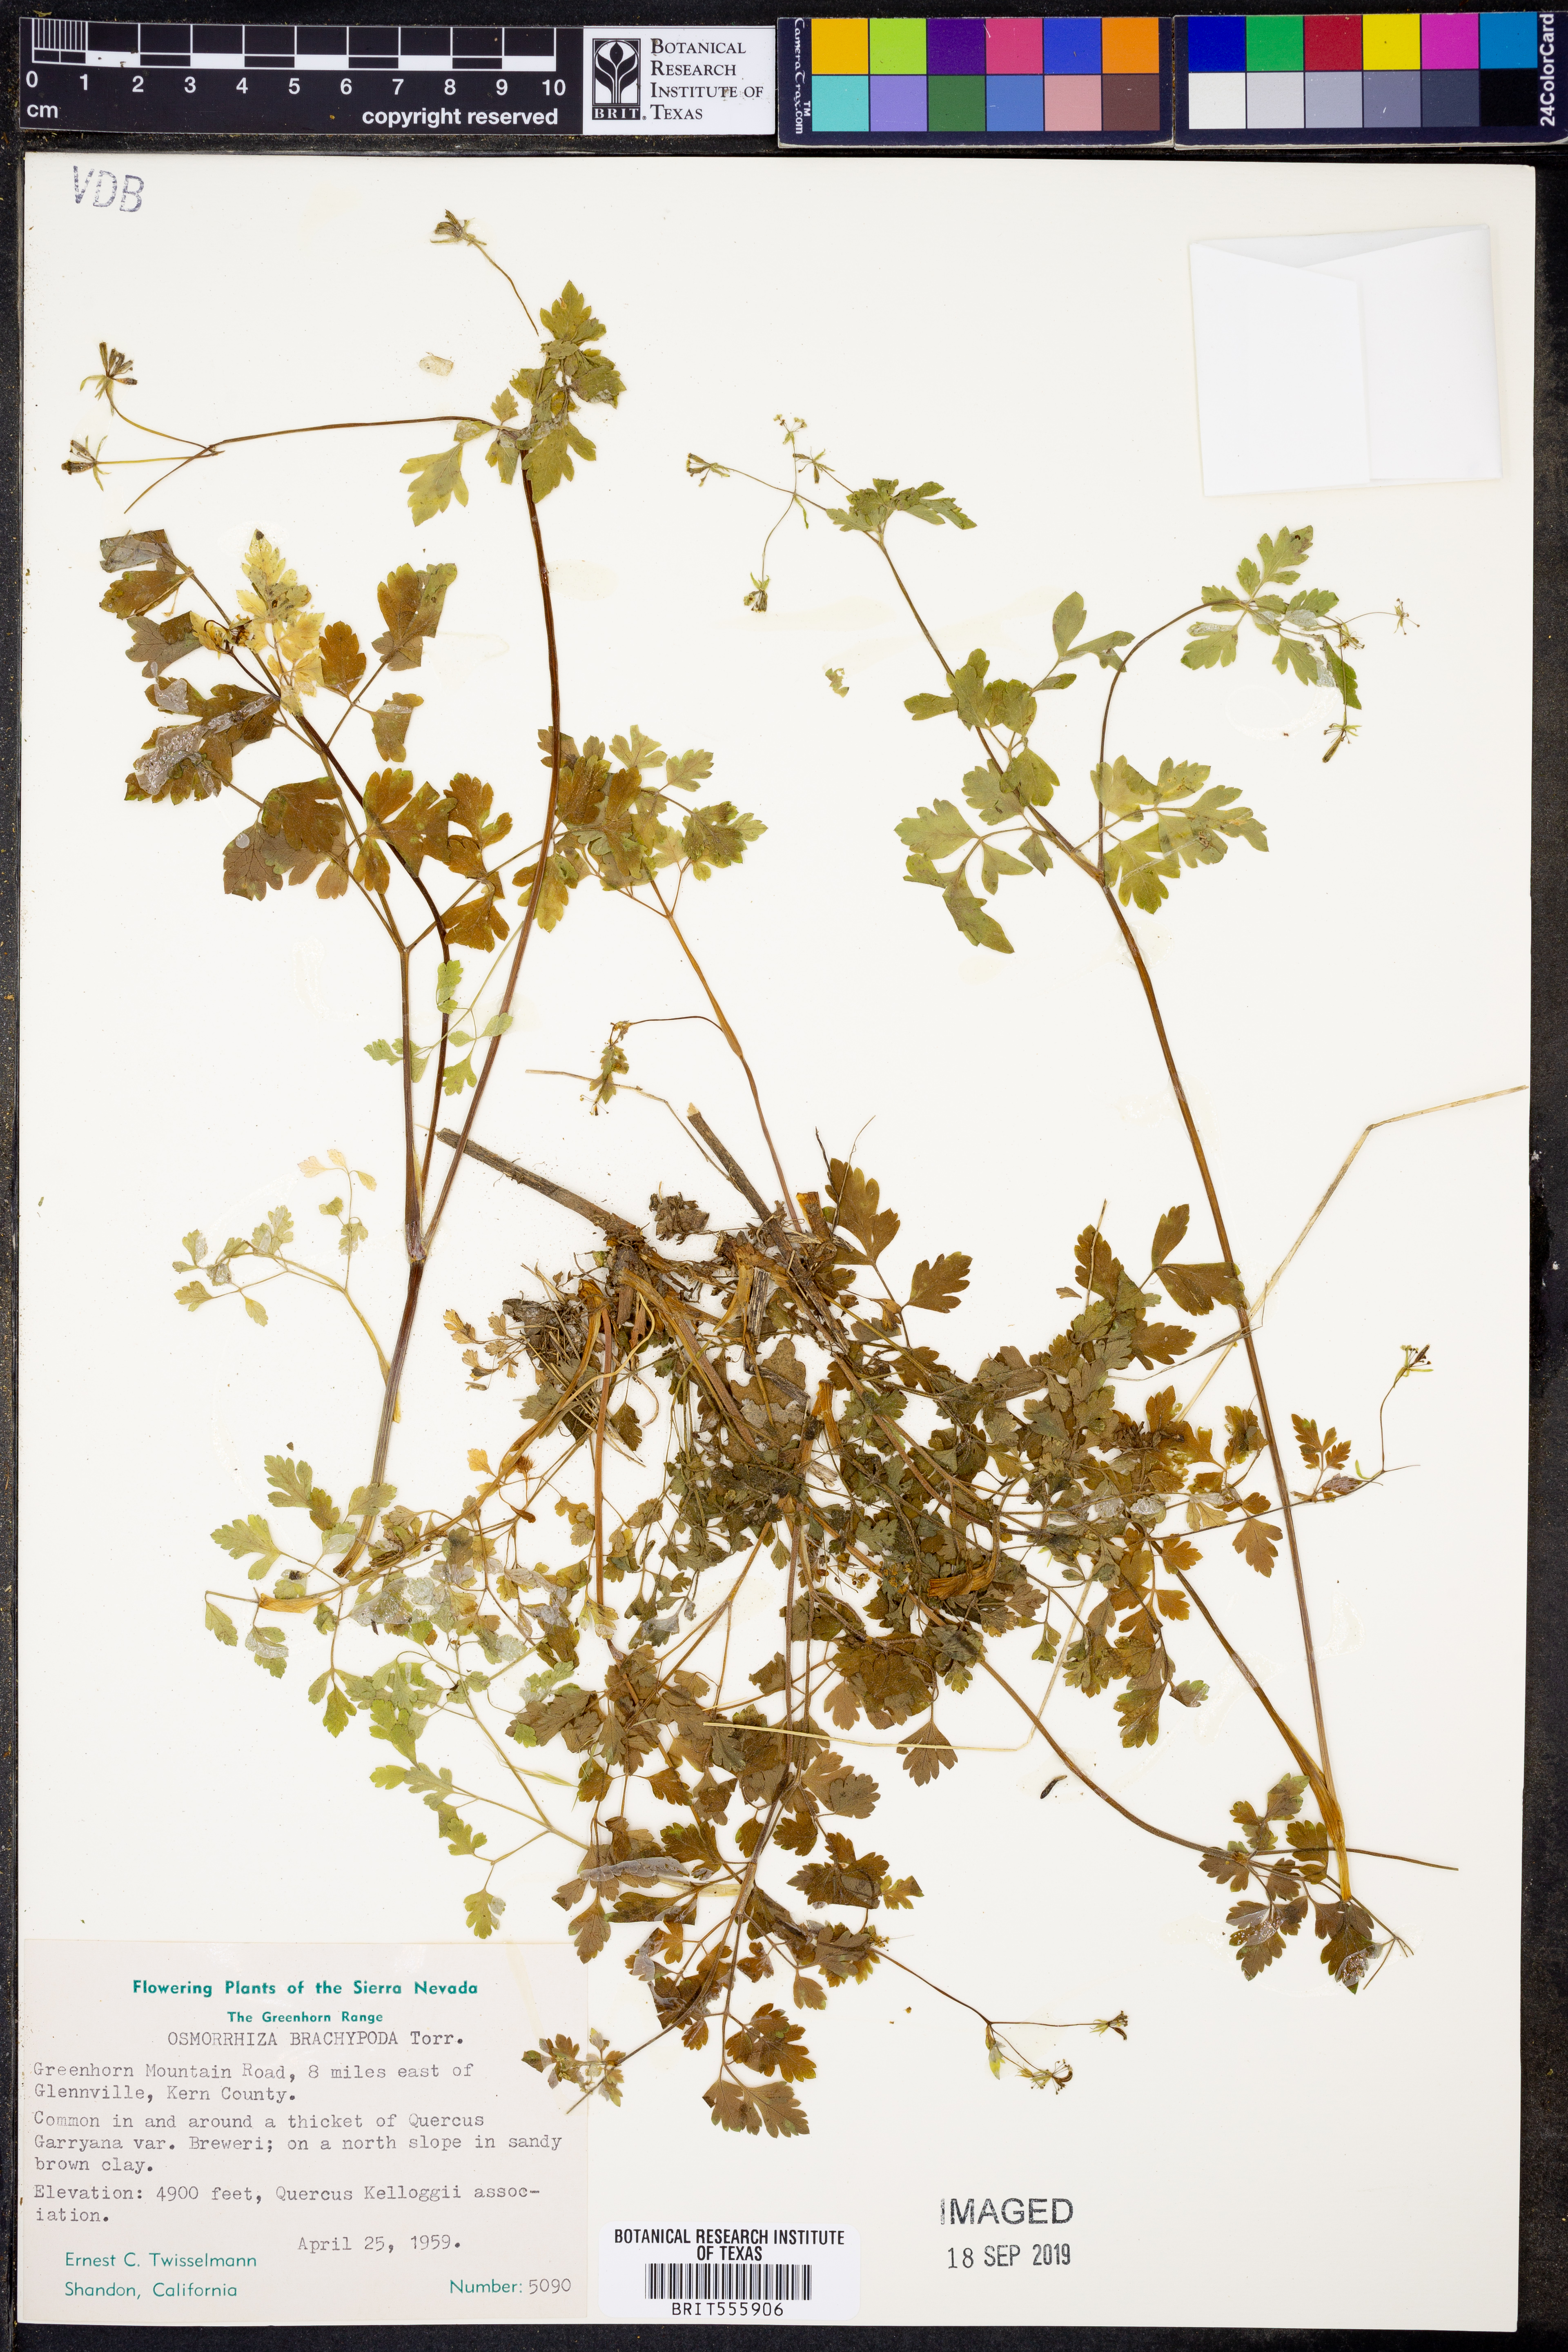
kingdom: Plantae
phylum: Tracheophyta
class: Magnoliopsida
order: Apiales
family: Apiaceae
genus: Osmorhiza
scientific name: Osmorhiza brachypoda
